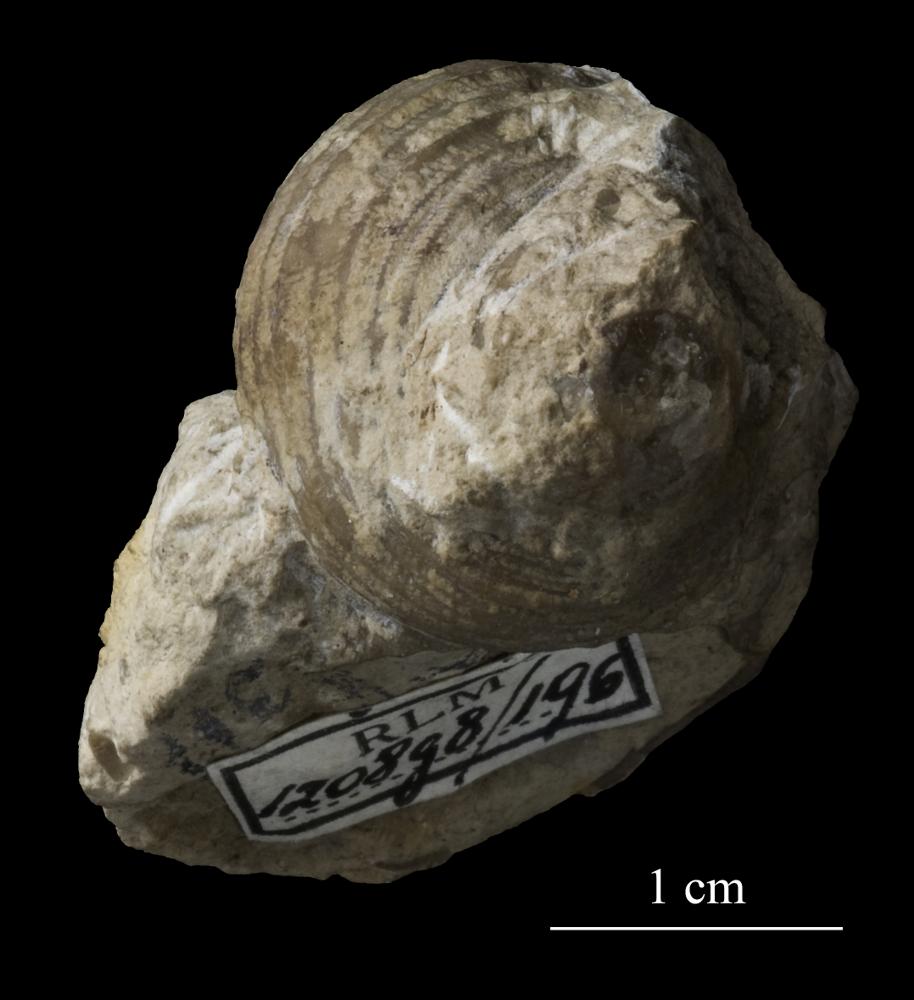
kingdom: Animalia
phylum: Mollusca
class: Gastropoda
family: Platyceratidae
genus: Cyclonema
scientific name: Cyclonema Turbo rupestre
